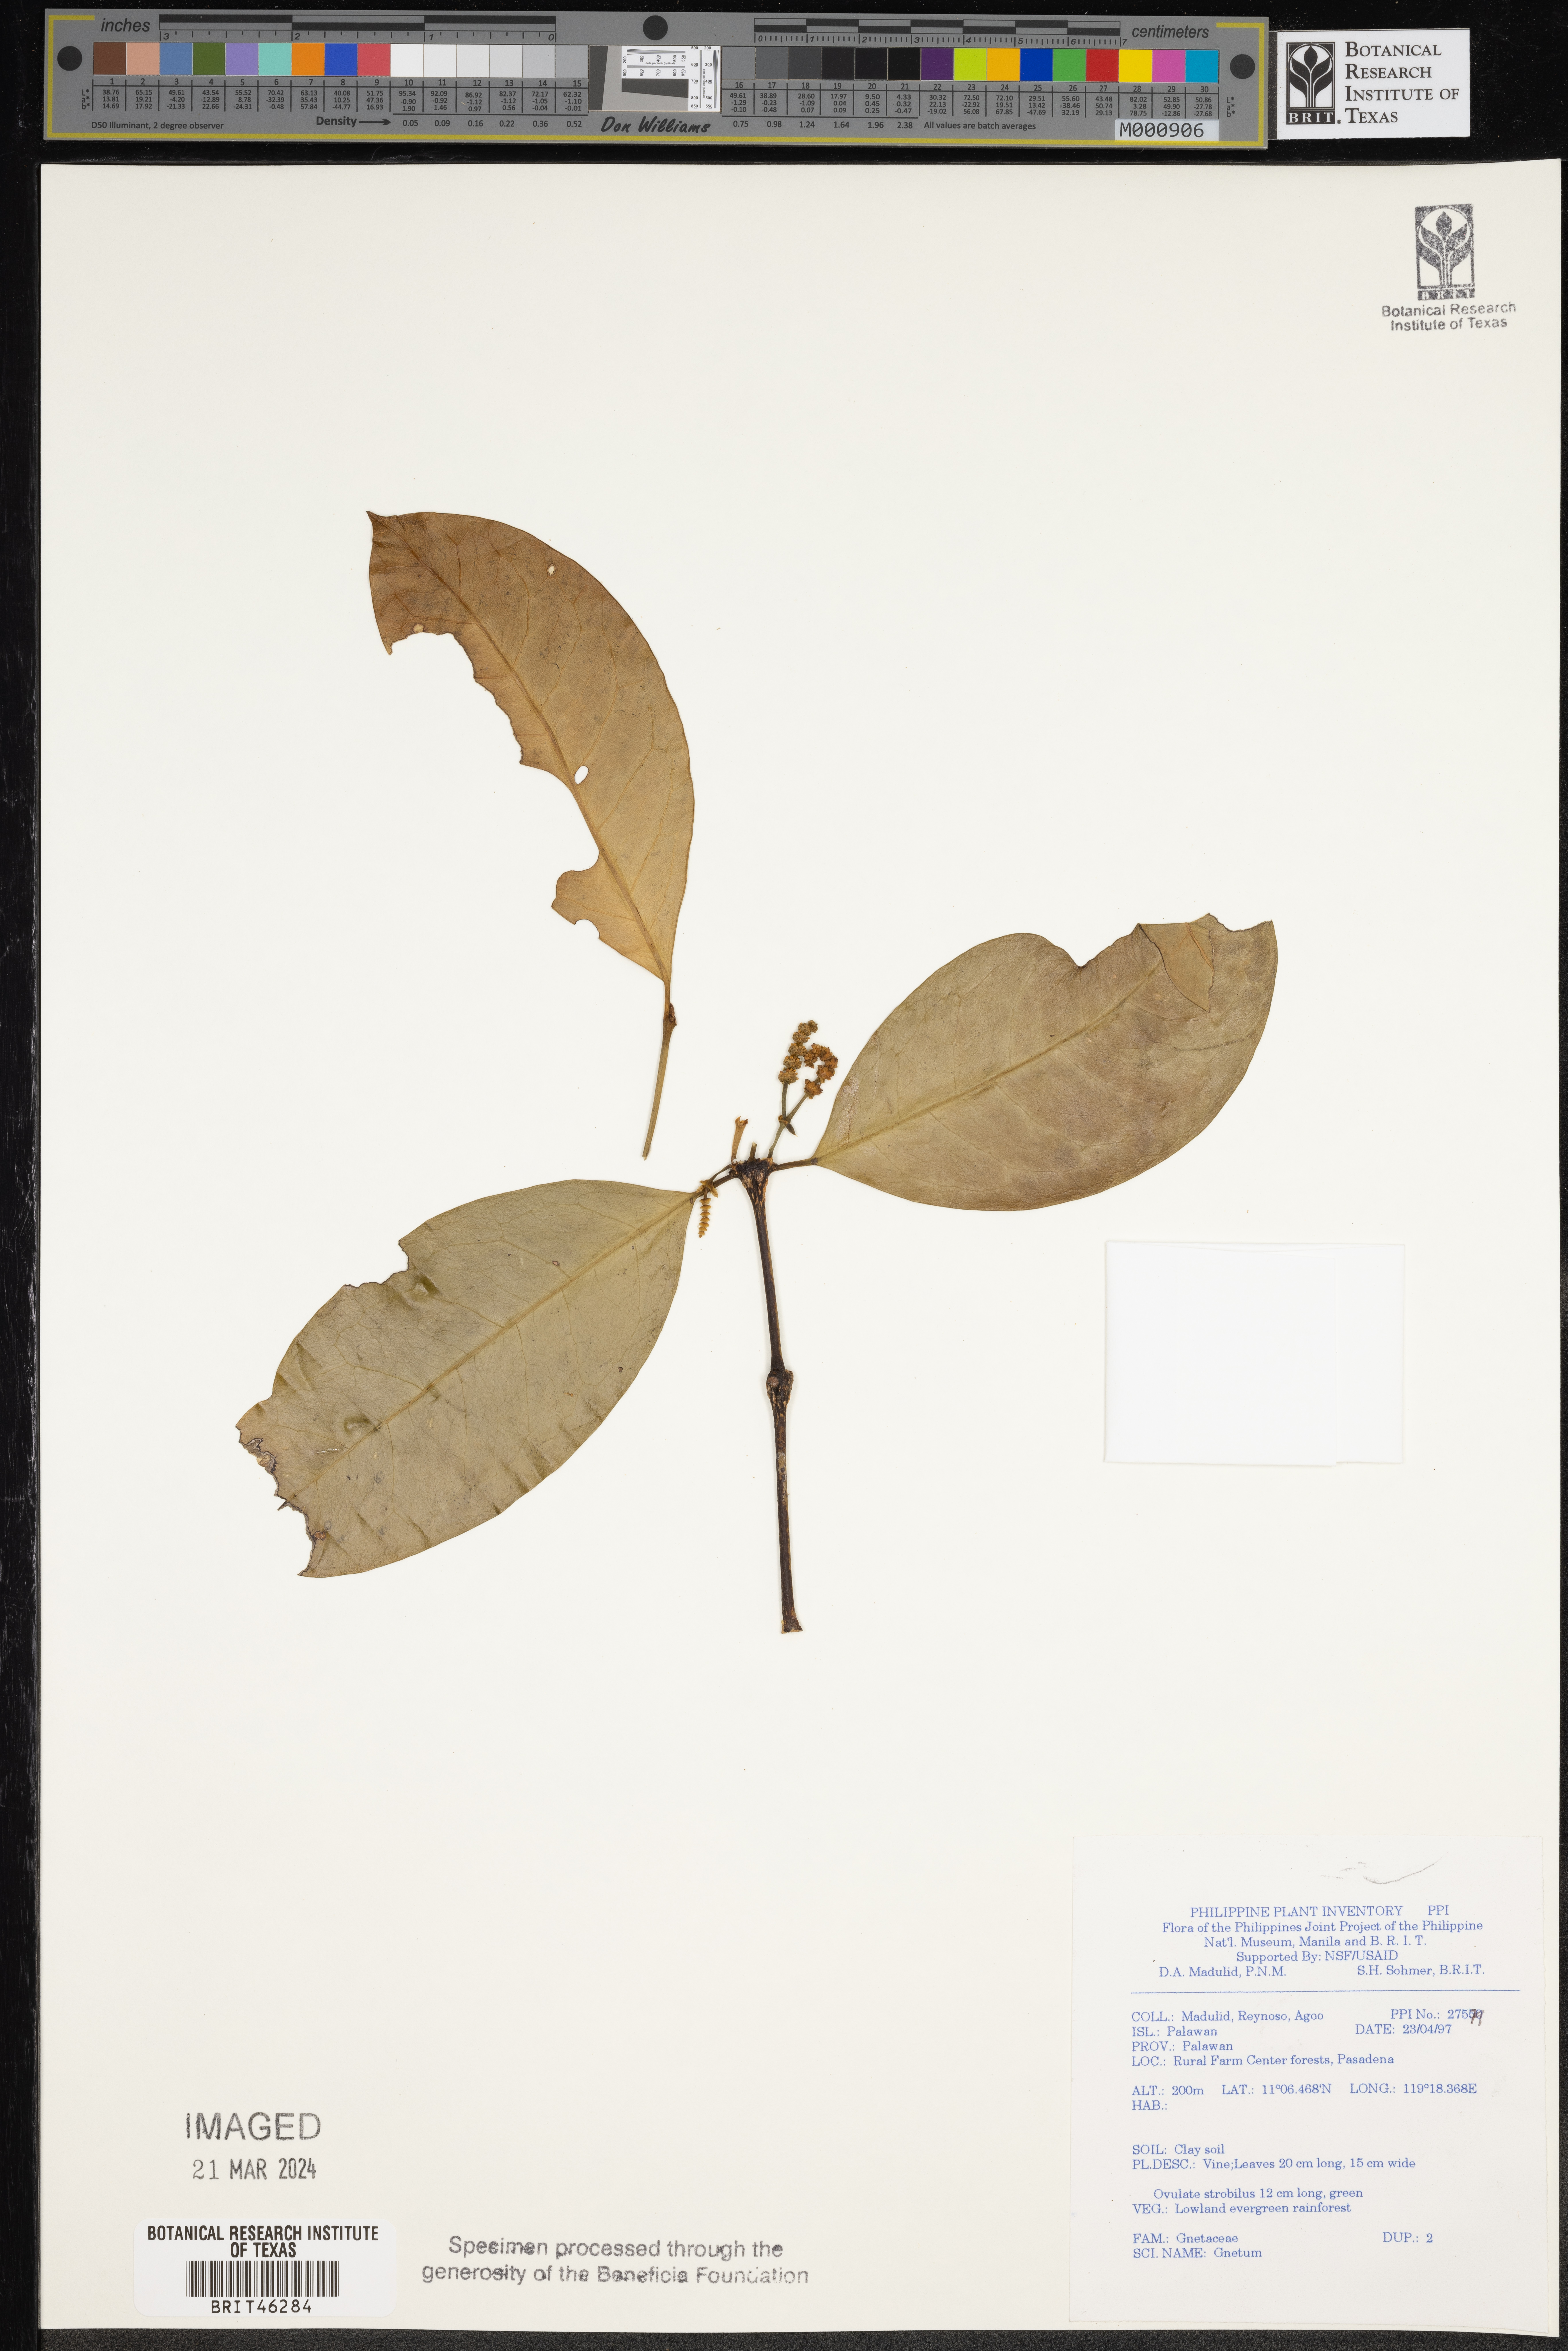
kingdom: Plantae
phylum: Tracheophyta
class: Gnetopsida
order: Gnetales
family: Gnetaceae
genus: Gnetum
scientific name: Gnetum
